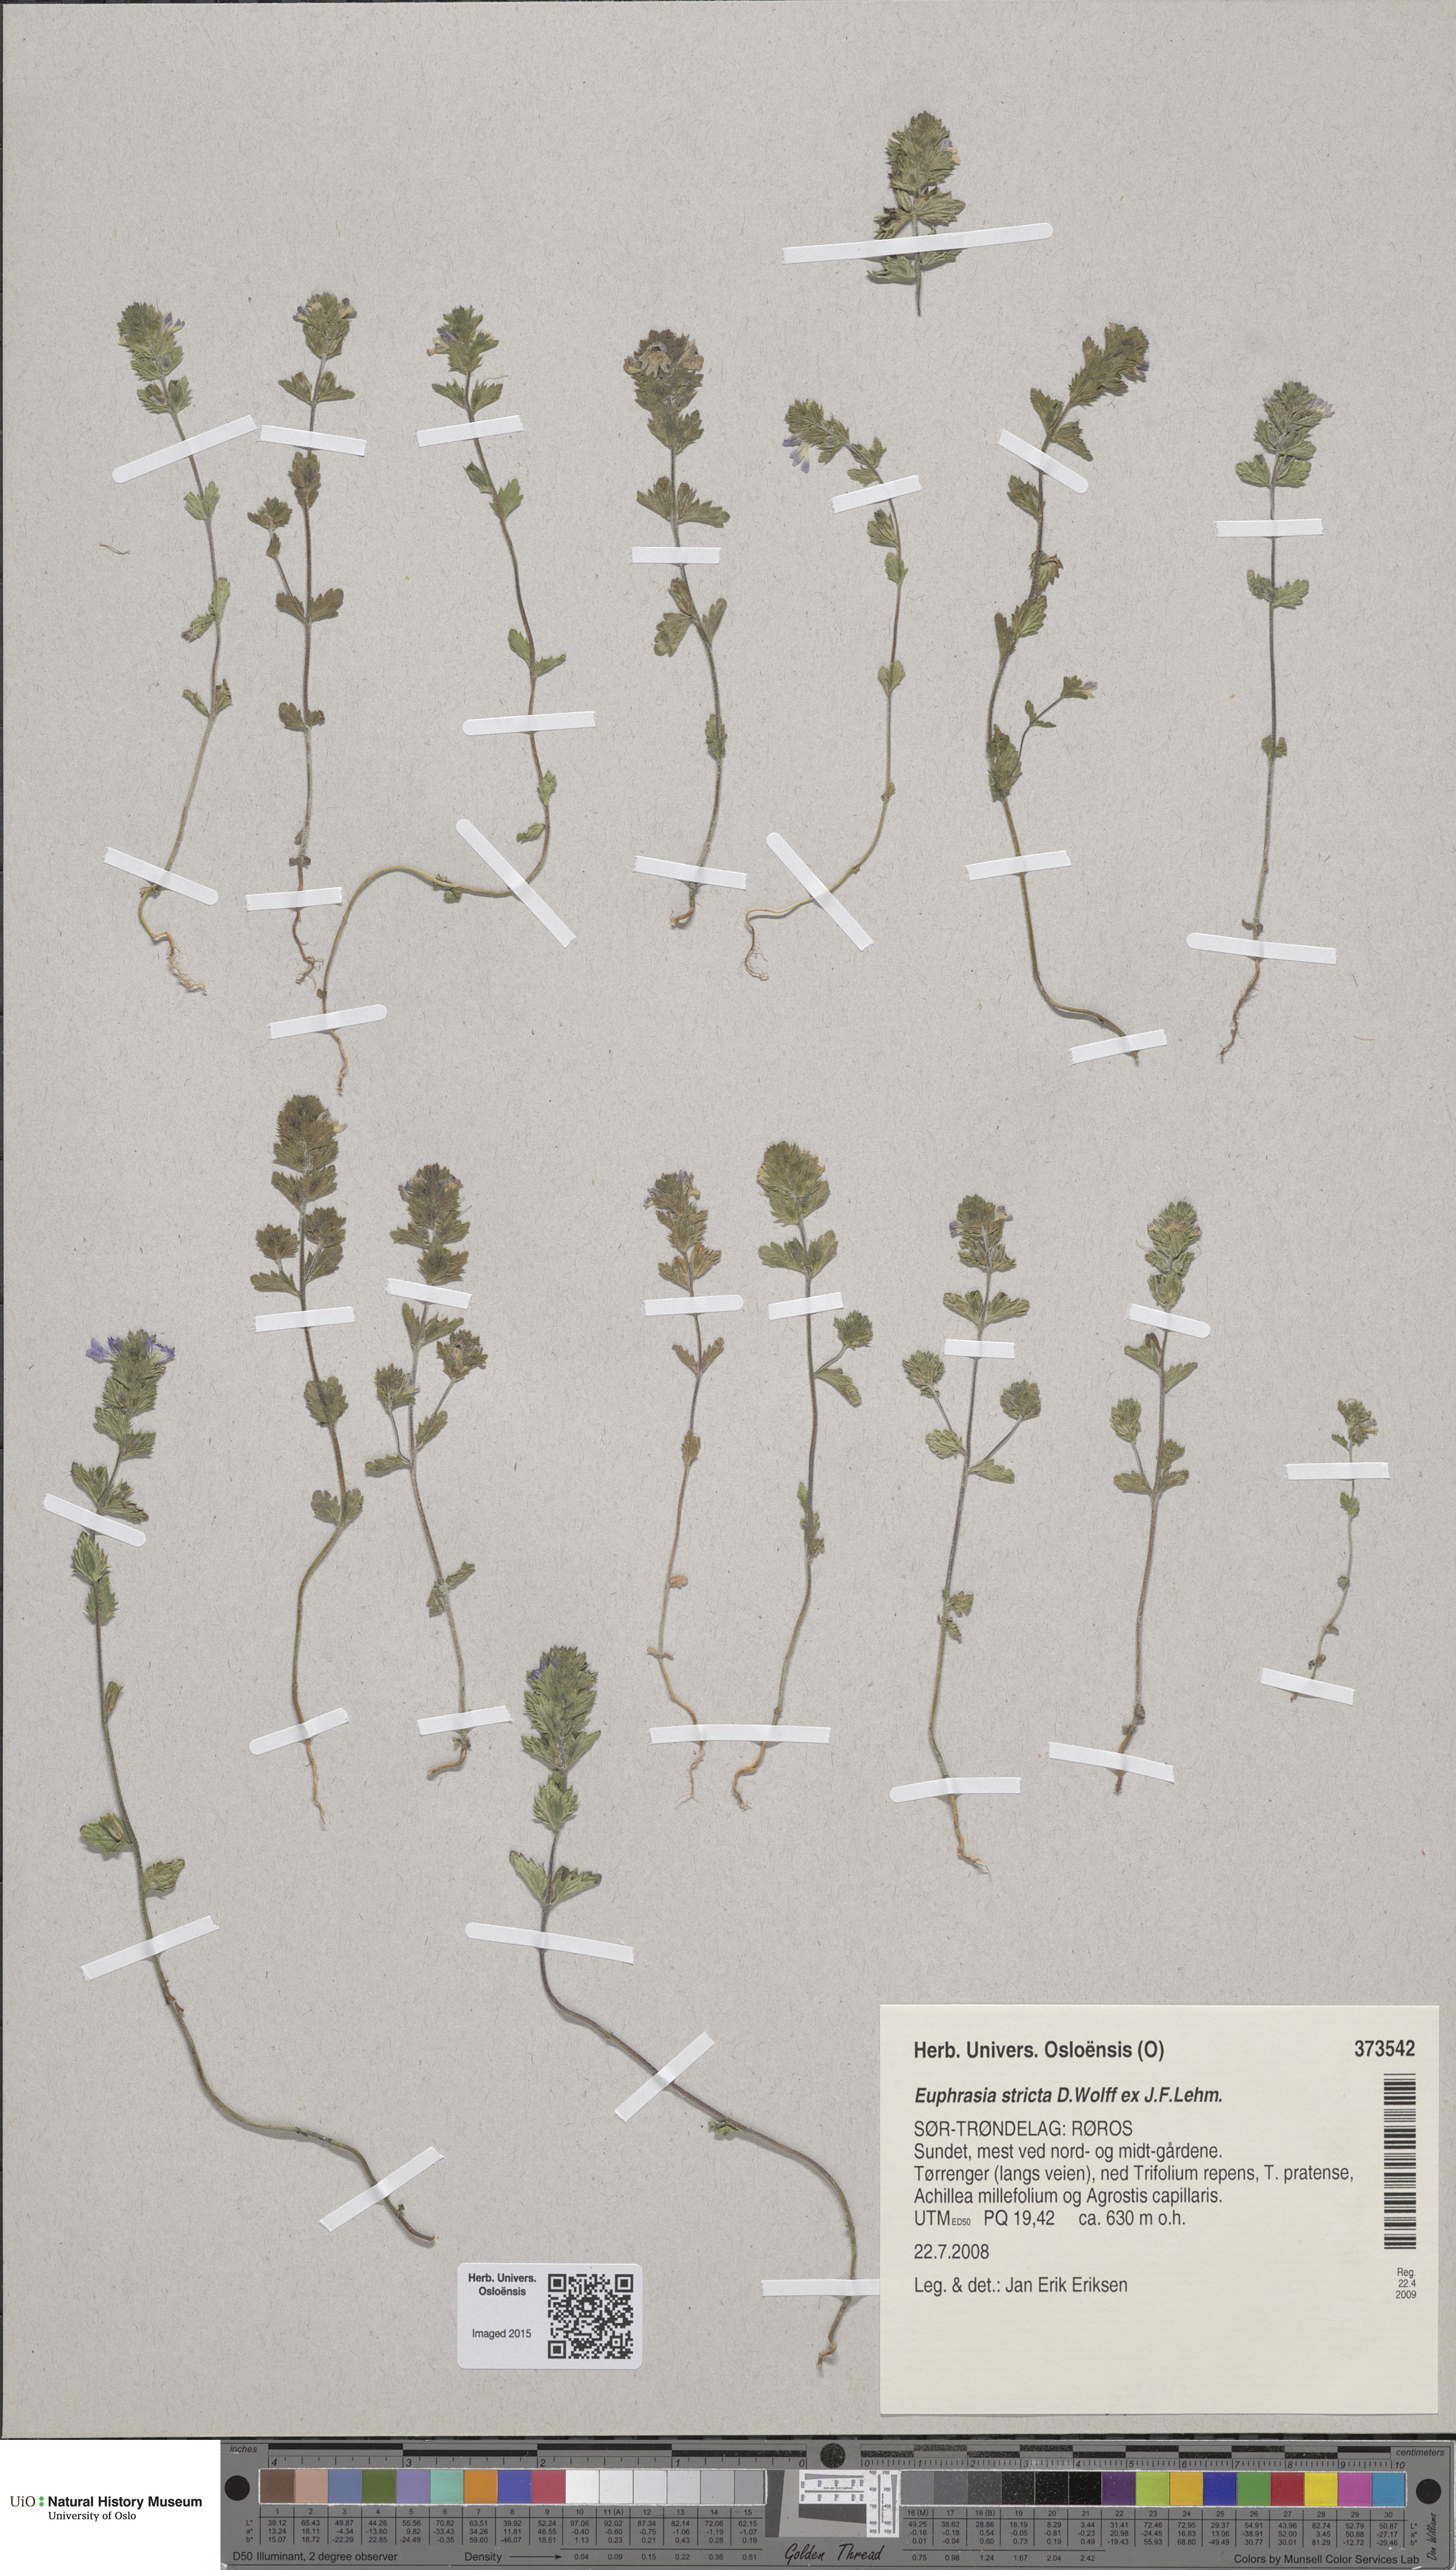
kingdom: Plantae
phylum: Tracheophyta
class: Magnoliopsida
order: Lamiales
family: Orobanchaceae
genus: Euphrasia
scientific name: Euphrasia stricta
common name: Drug eyebright
